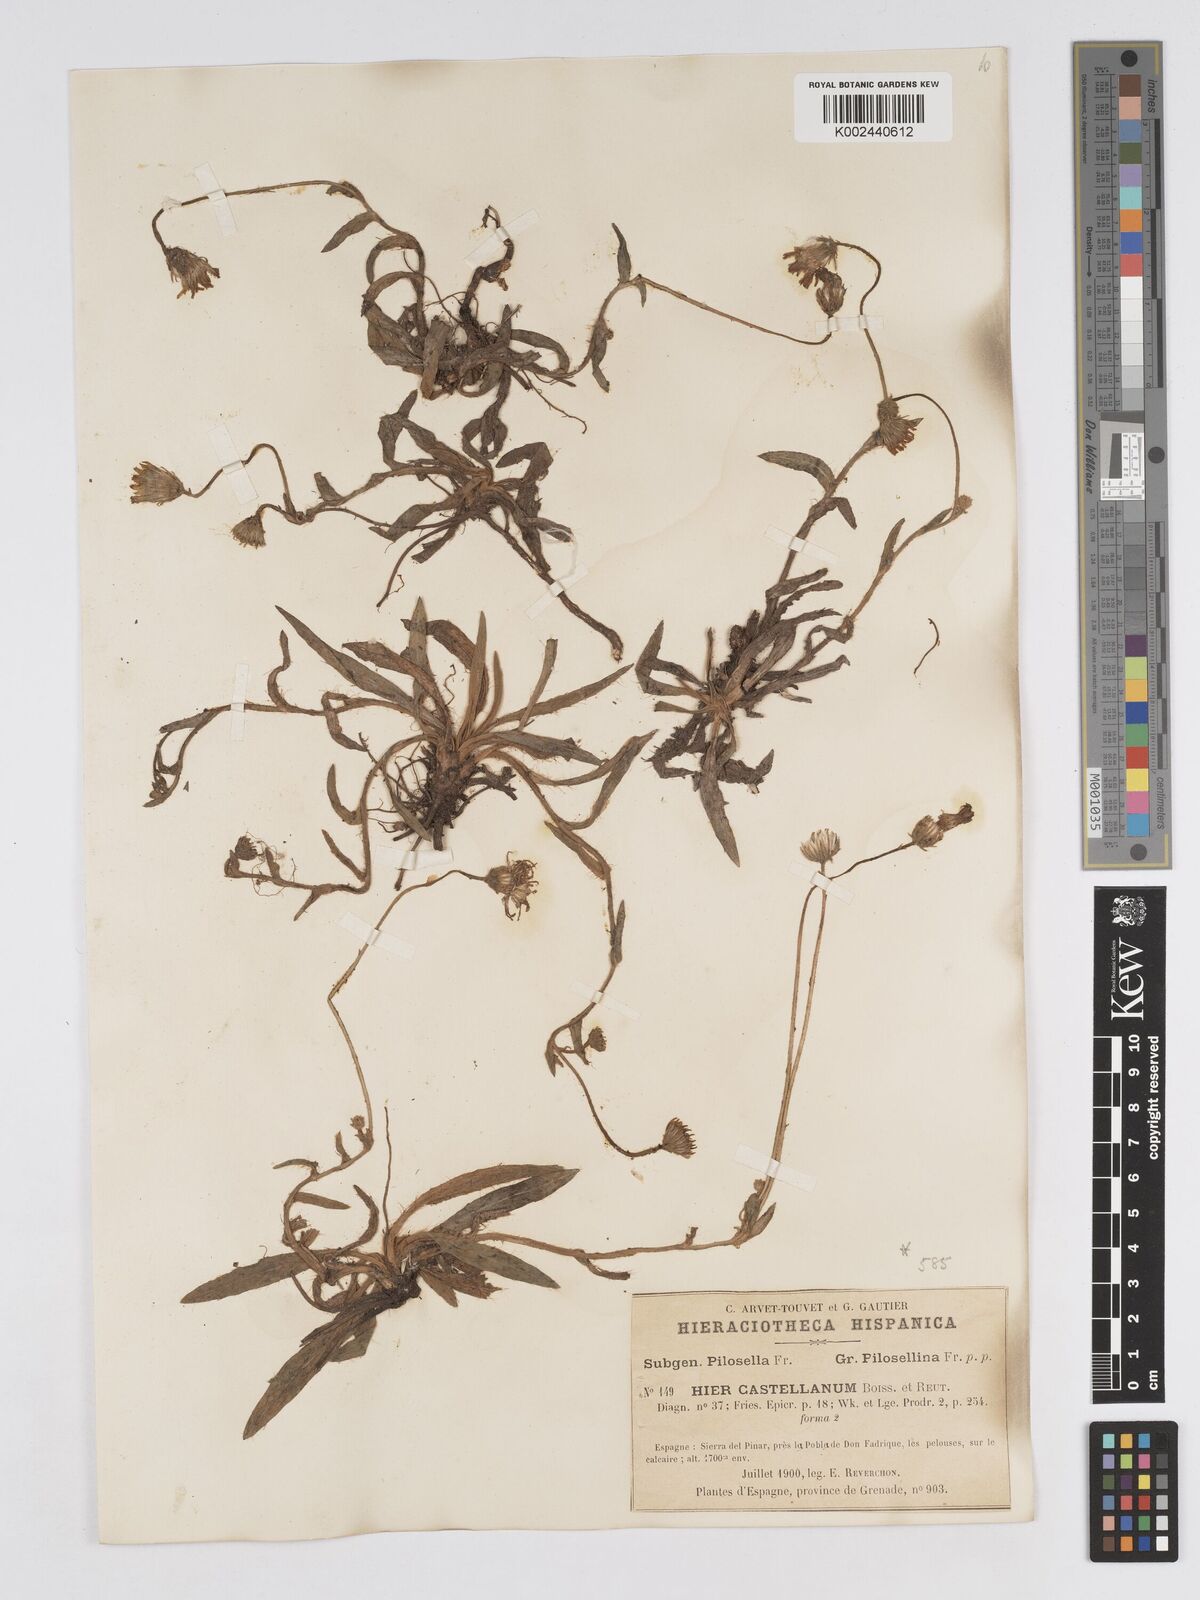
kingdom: Plantae
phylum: Tracheophyta
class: Magnoliopsida
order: Asterales
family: Asteraceae
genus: Pilosella
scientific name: Pilosella castellana
